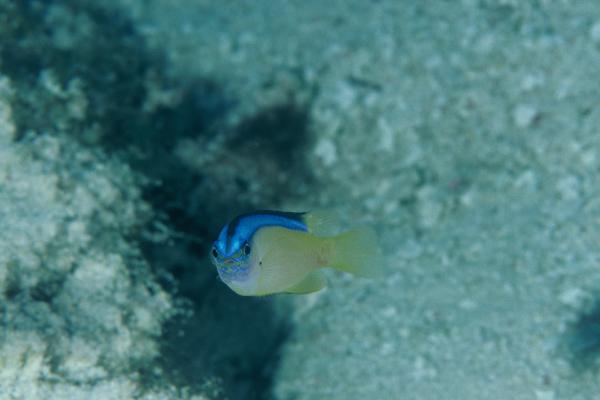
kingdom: Animalia
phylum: Chordata
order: Perciformes
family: Pomacentridae
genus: Chrysiptera
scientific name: Chrysiptera caeruleolineata
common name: Blue-line demoiselle
